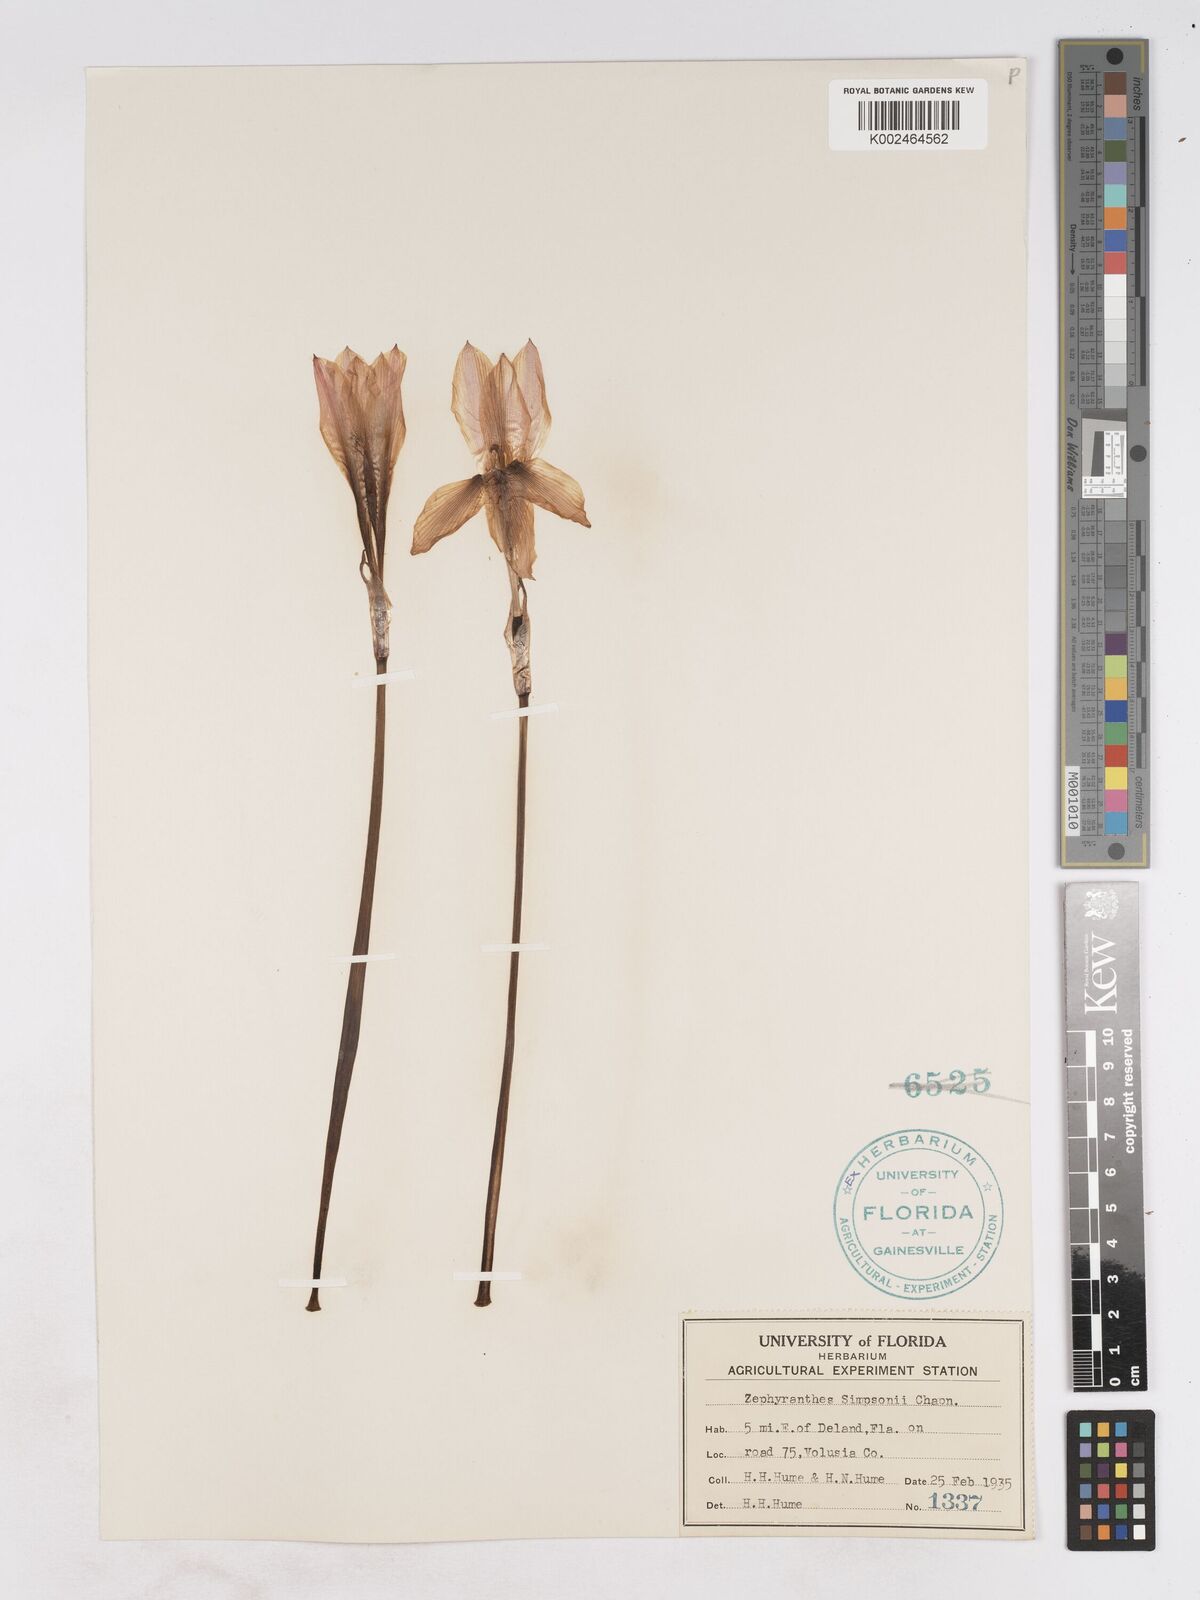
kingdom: Plantae
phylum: Tracheophyta
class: Liliopsida
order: Asparagales
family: Amaryllidaceae
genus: Zephyranthes
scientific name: Zephyranthes simpsonii
